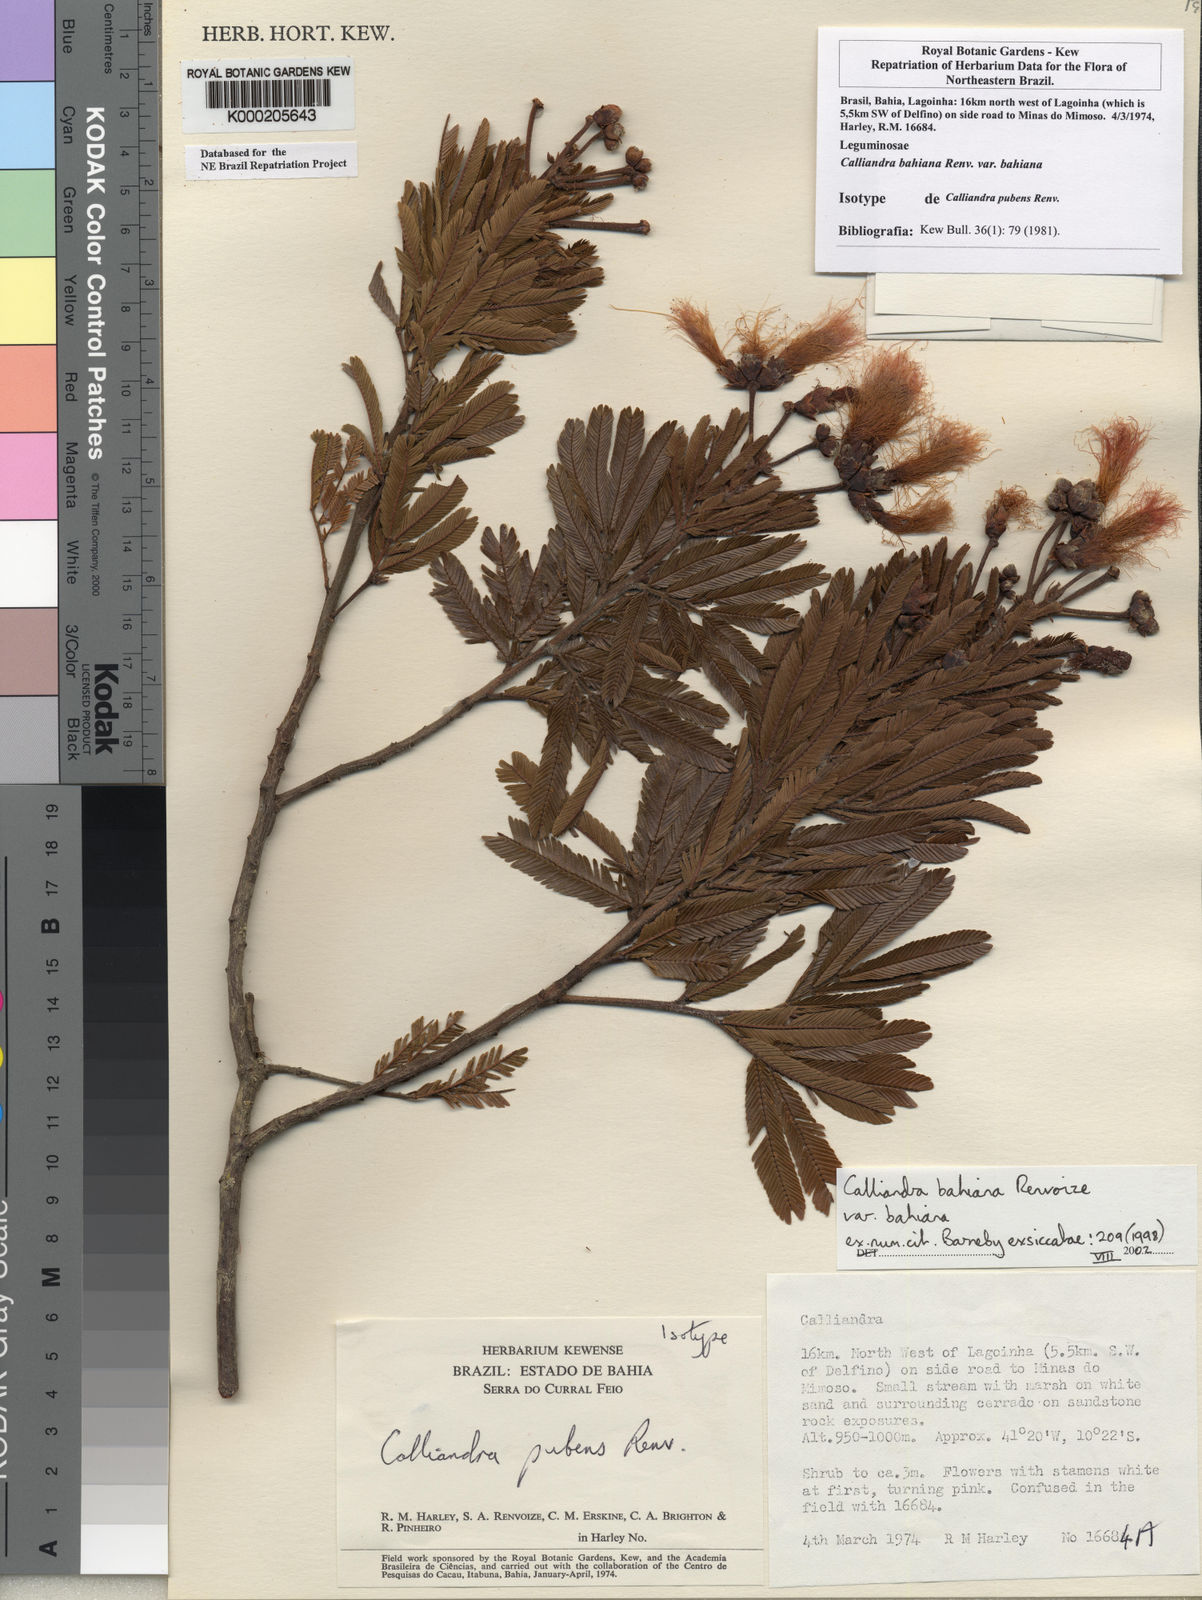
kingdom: Plantae
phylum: Tracheophyta
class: Magnoliopsida
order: Fabales
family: Fabaceae
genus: Calliandra
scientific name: Calliandra bahiana
